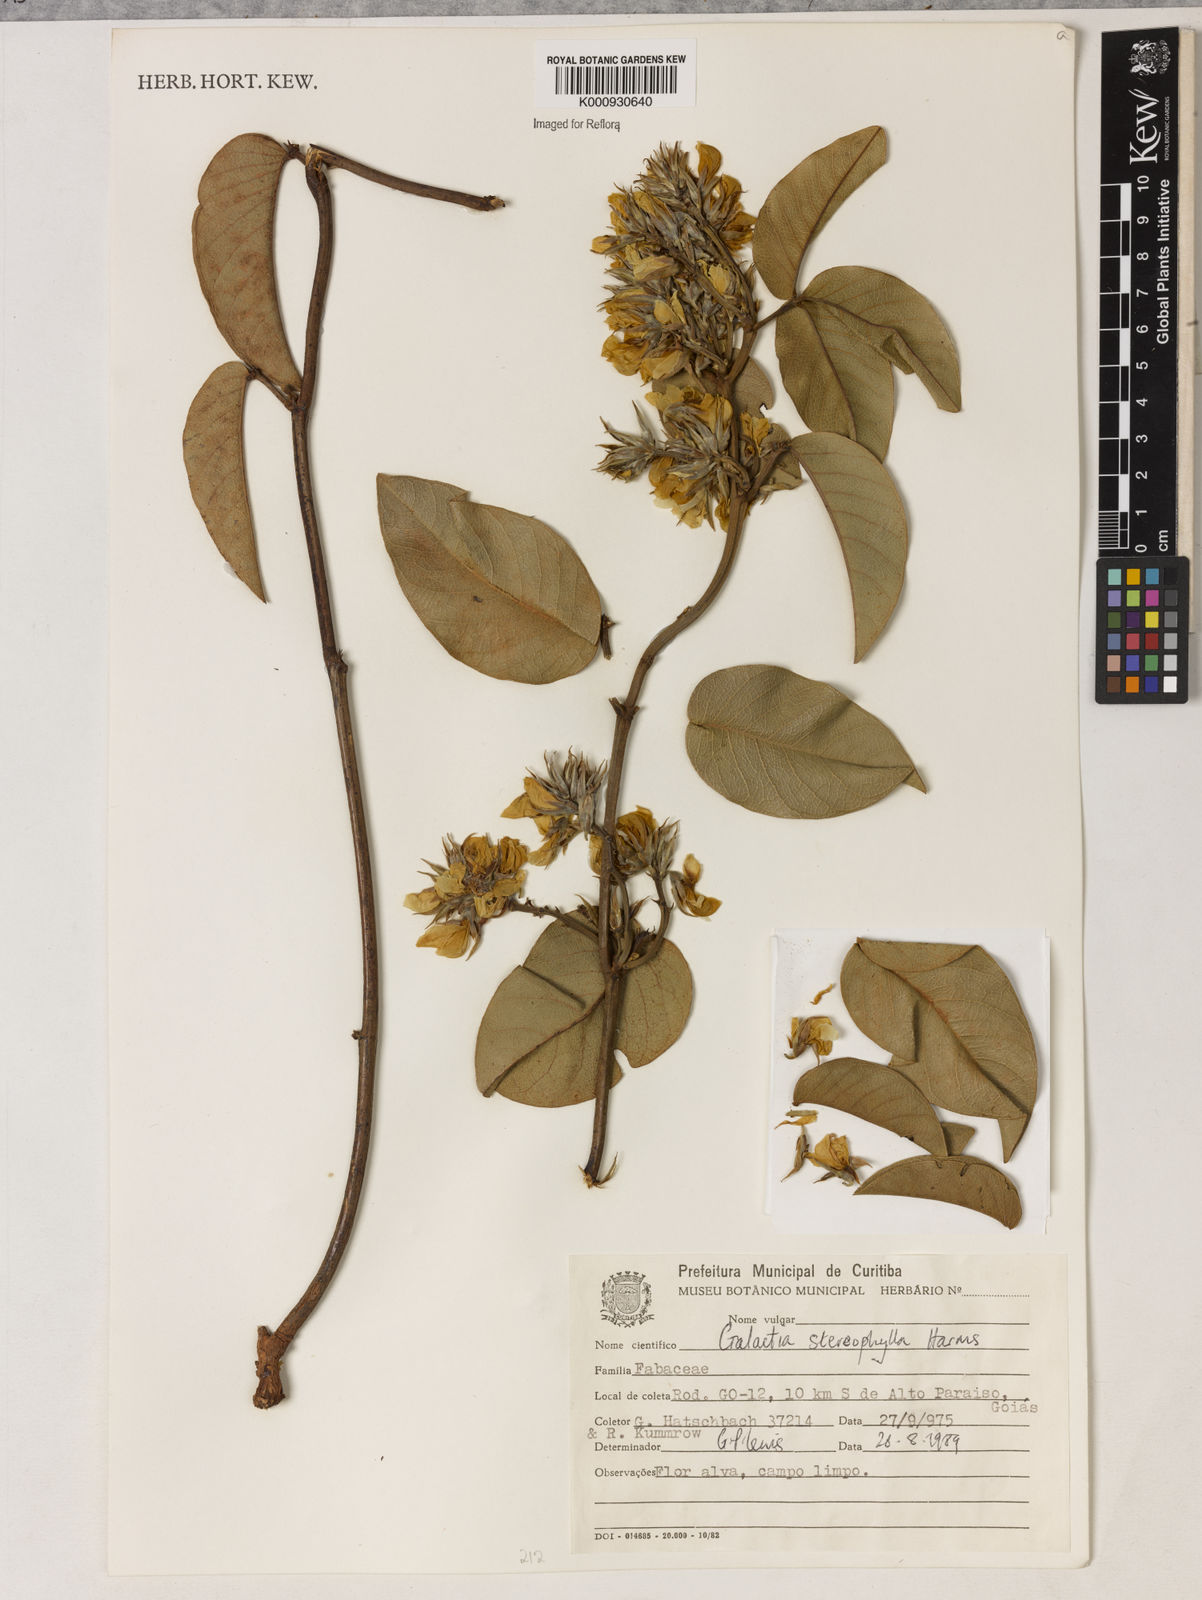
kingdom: Plantae
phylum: Tracheophyta
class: Magnoliopsida
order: Fabales
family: Fabaceae
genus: Betencourtia
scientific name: Betencourtia stereophylla
